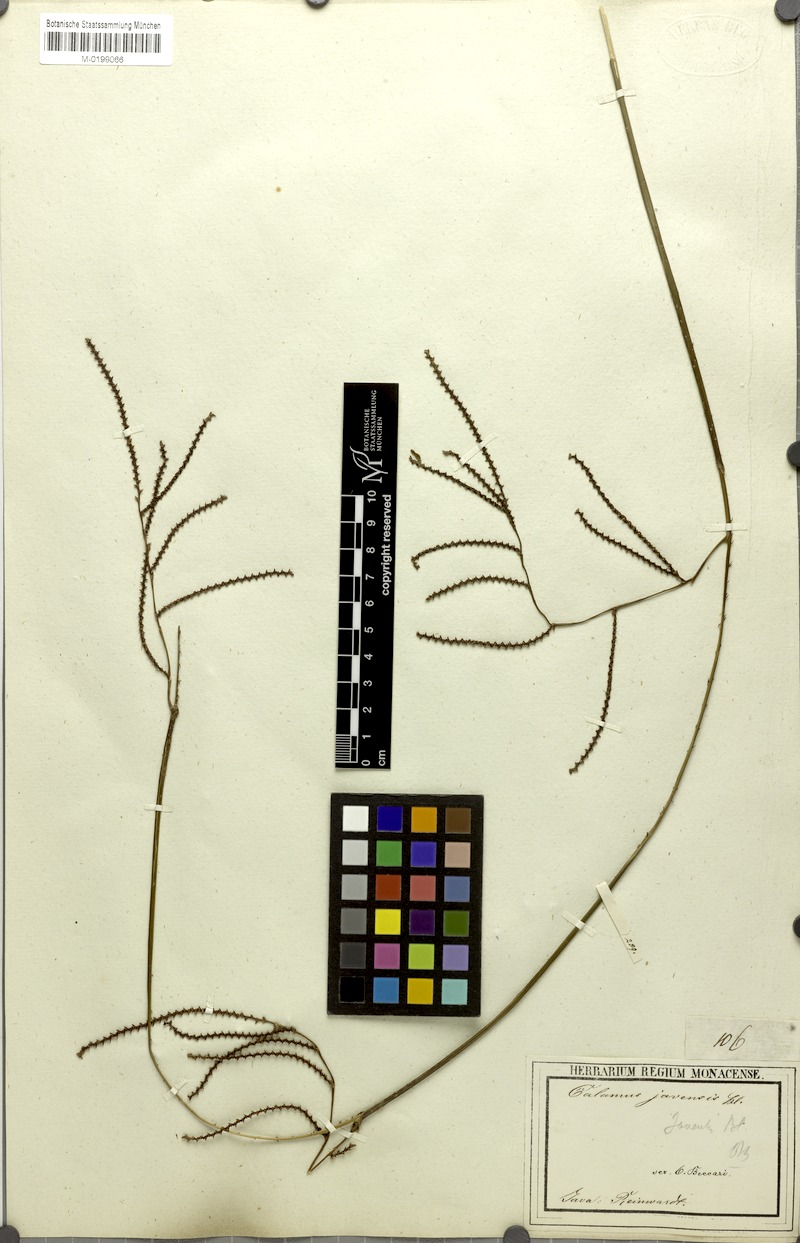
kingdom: Plantae
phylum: Tracheophyta
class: Liliopsida
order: Arecales
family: Arecaceae
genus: Calamus
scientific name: Calamus javensis
